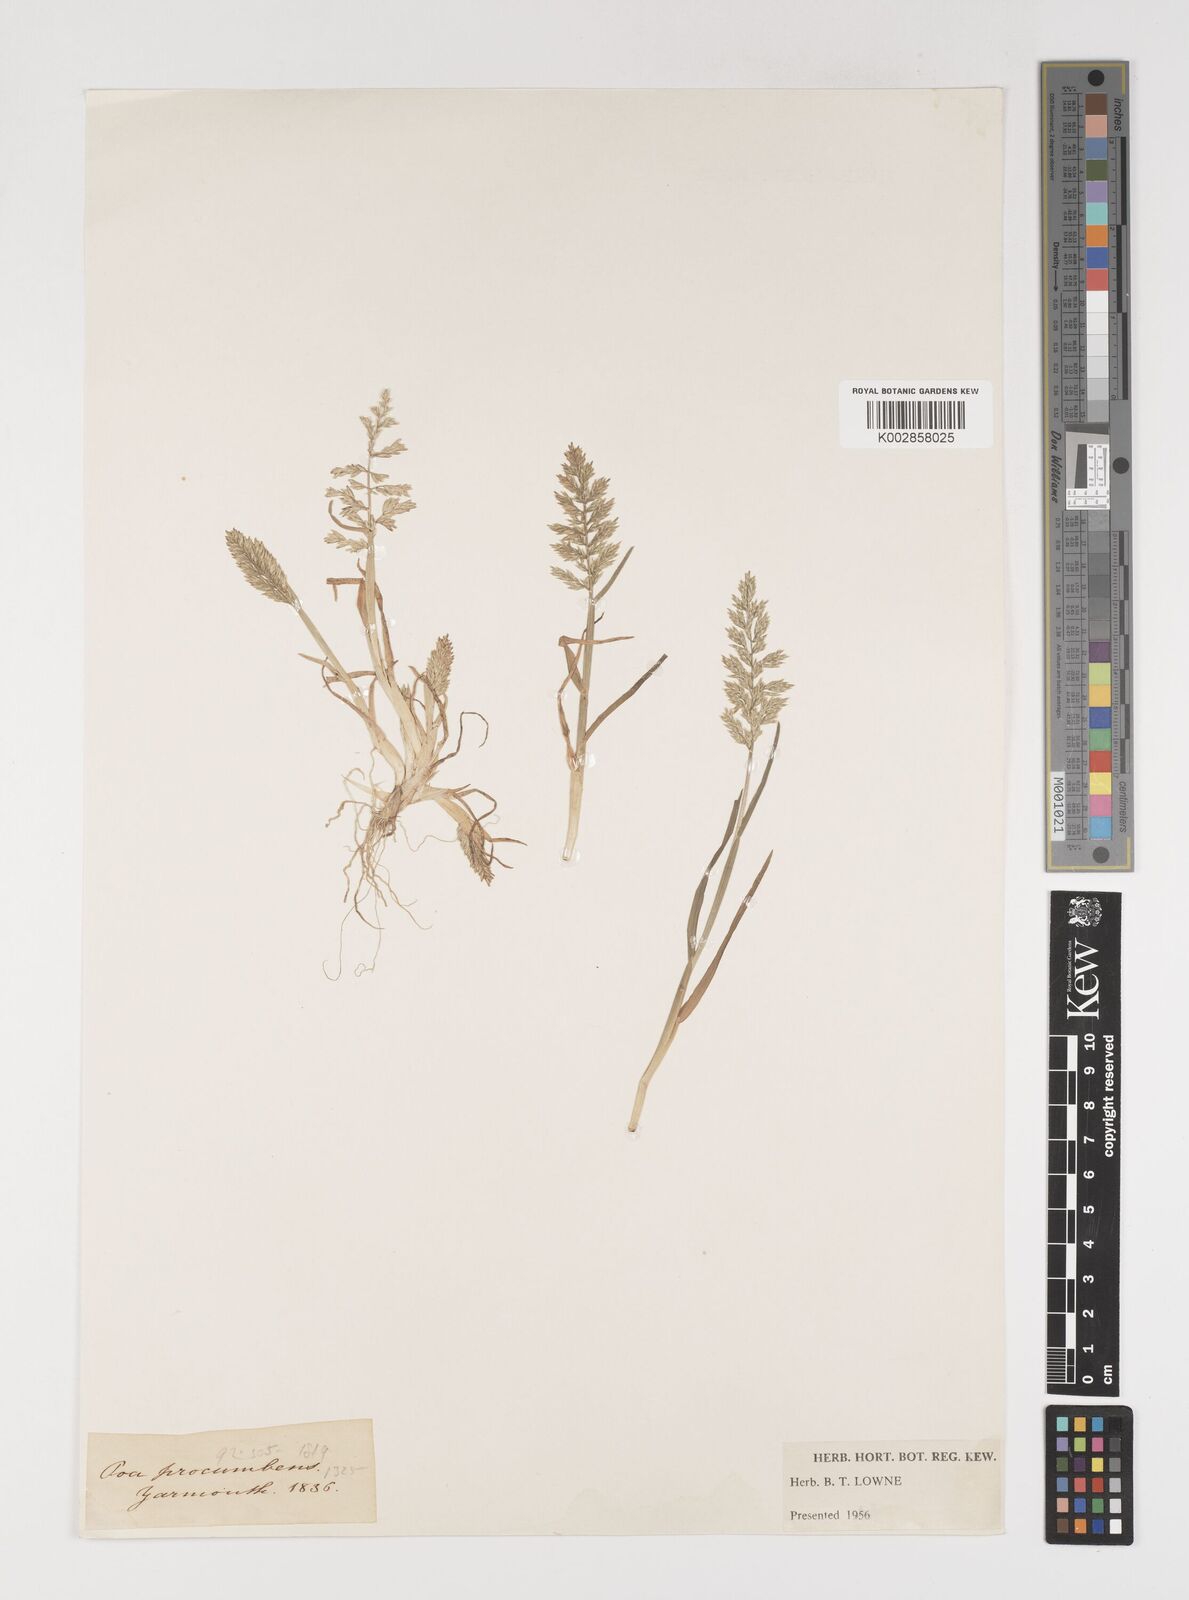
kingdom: Plantae
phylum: Tracheophyta
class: Liliopsida
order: Poales
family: Poaceae
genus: Puccinellia
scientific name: Puccinellia rupestris
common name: Stiff saltmarsh-grass
